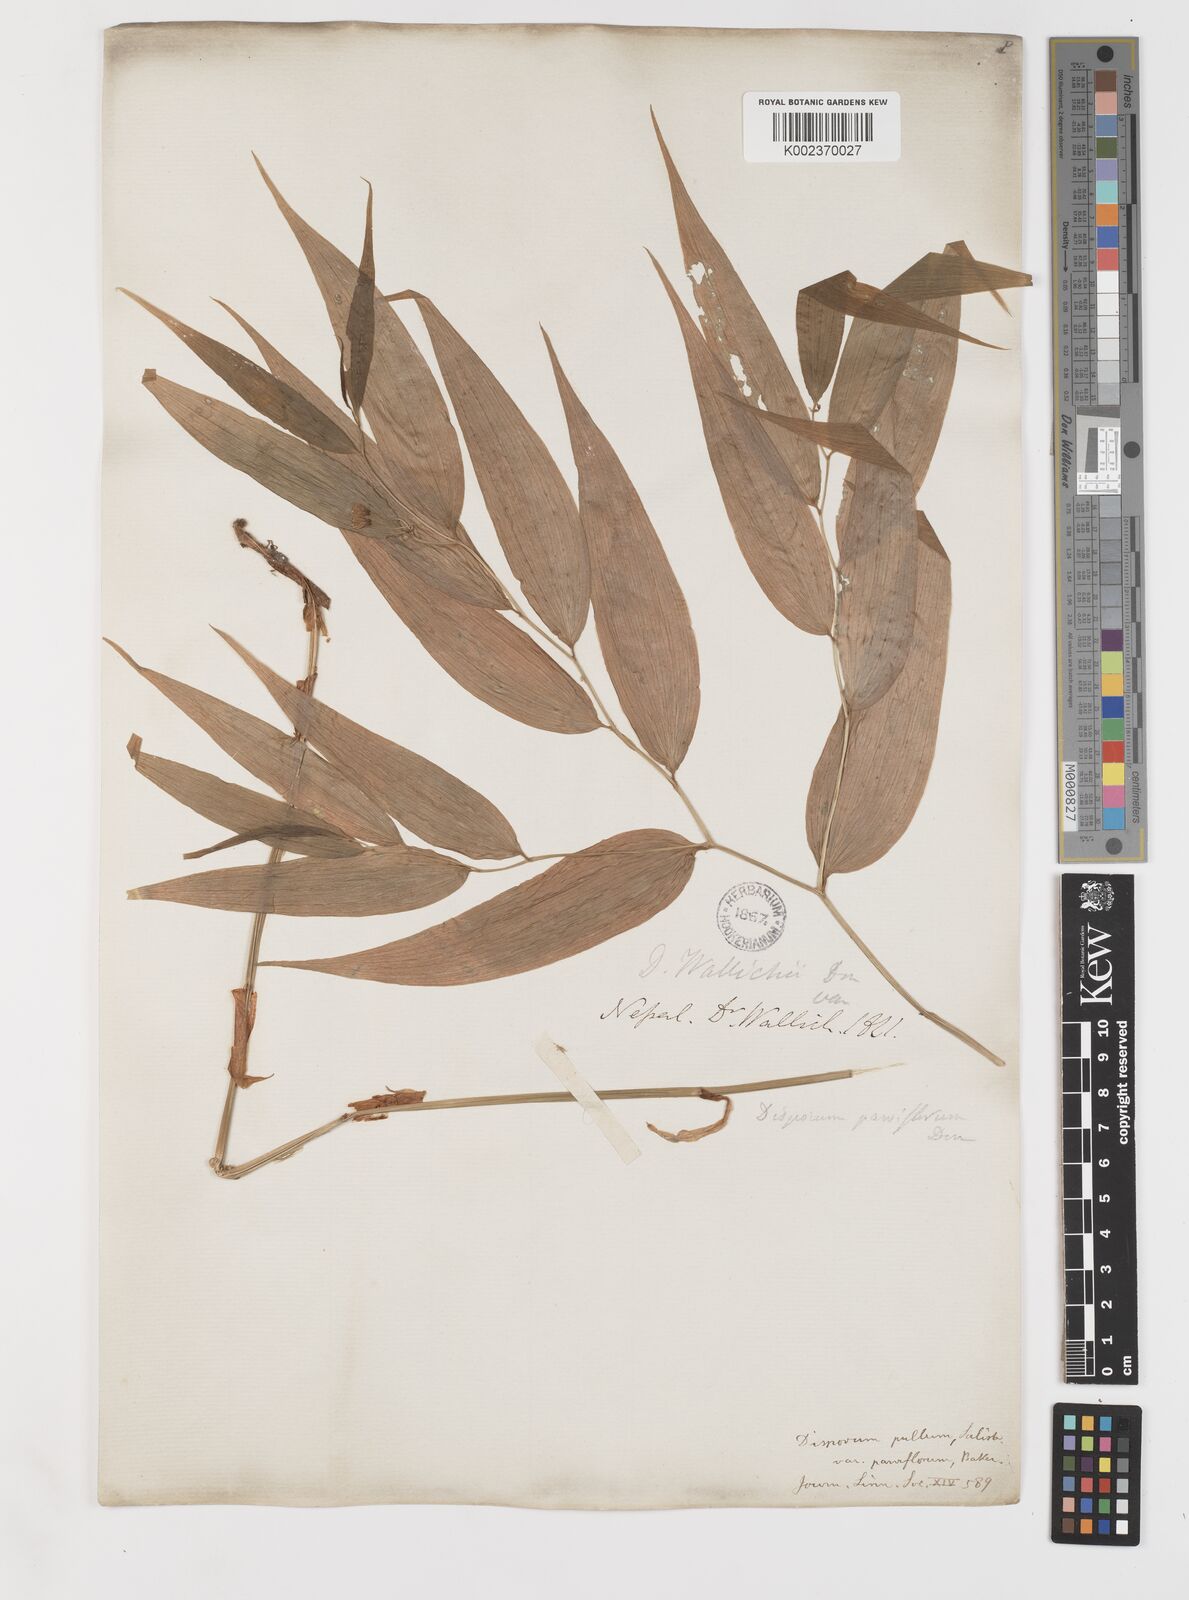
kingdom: Plantae
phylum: Tracheophyta
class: Liliopsida
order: Liliales
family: Colchicaceae
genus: Disporum
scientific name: Disporum cantoniense
